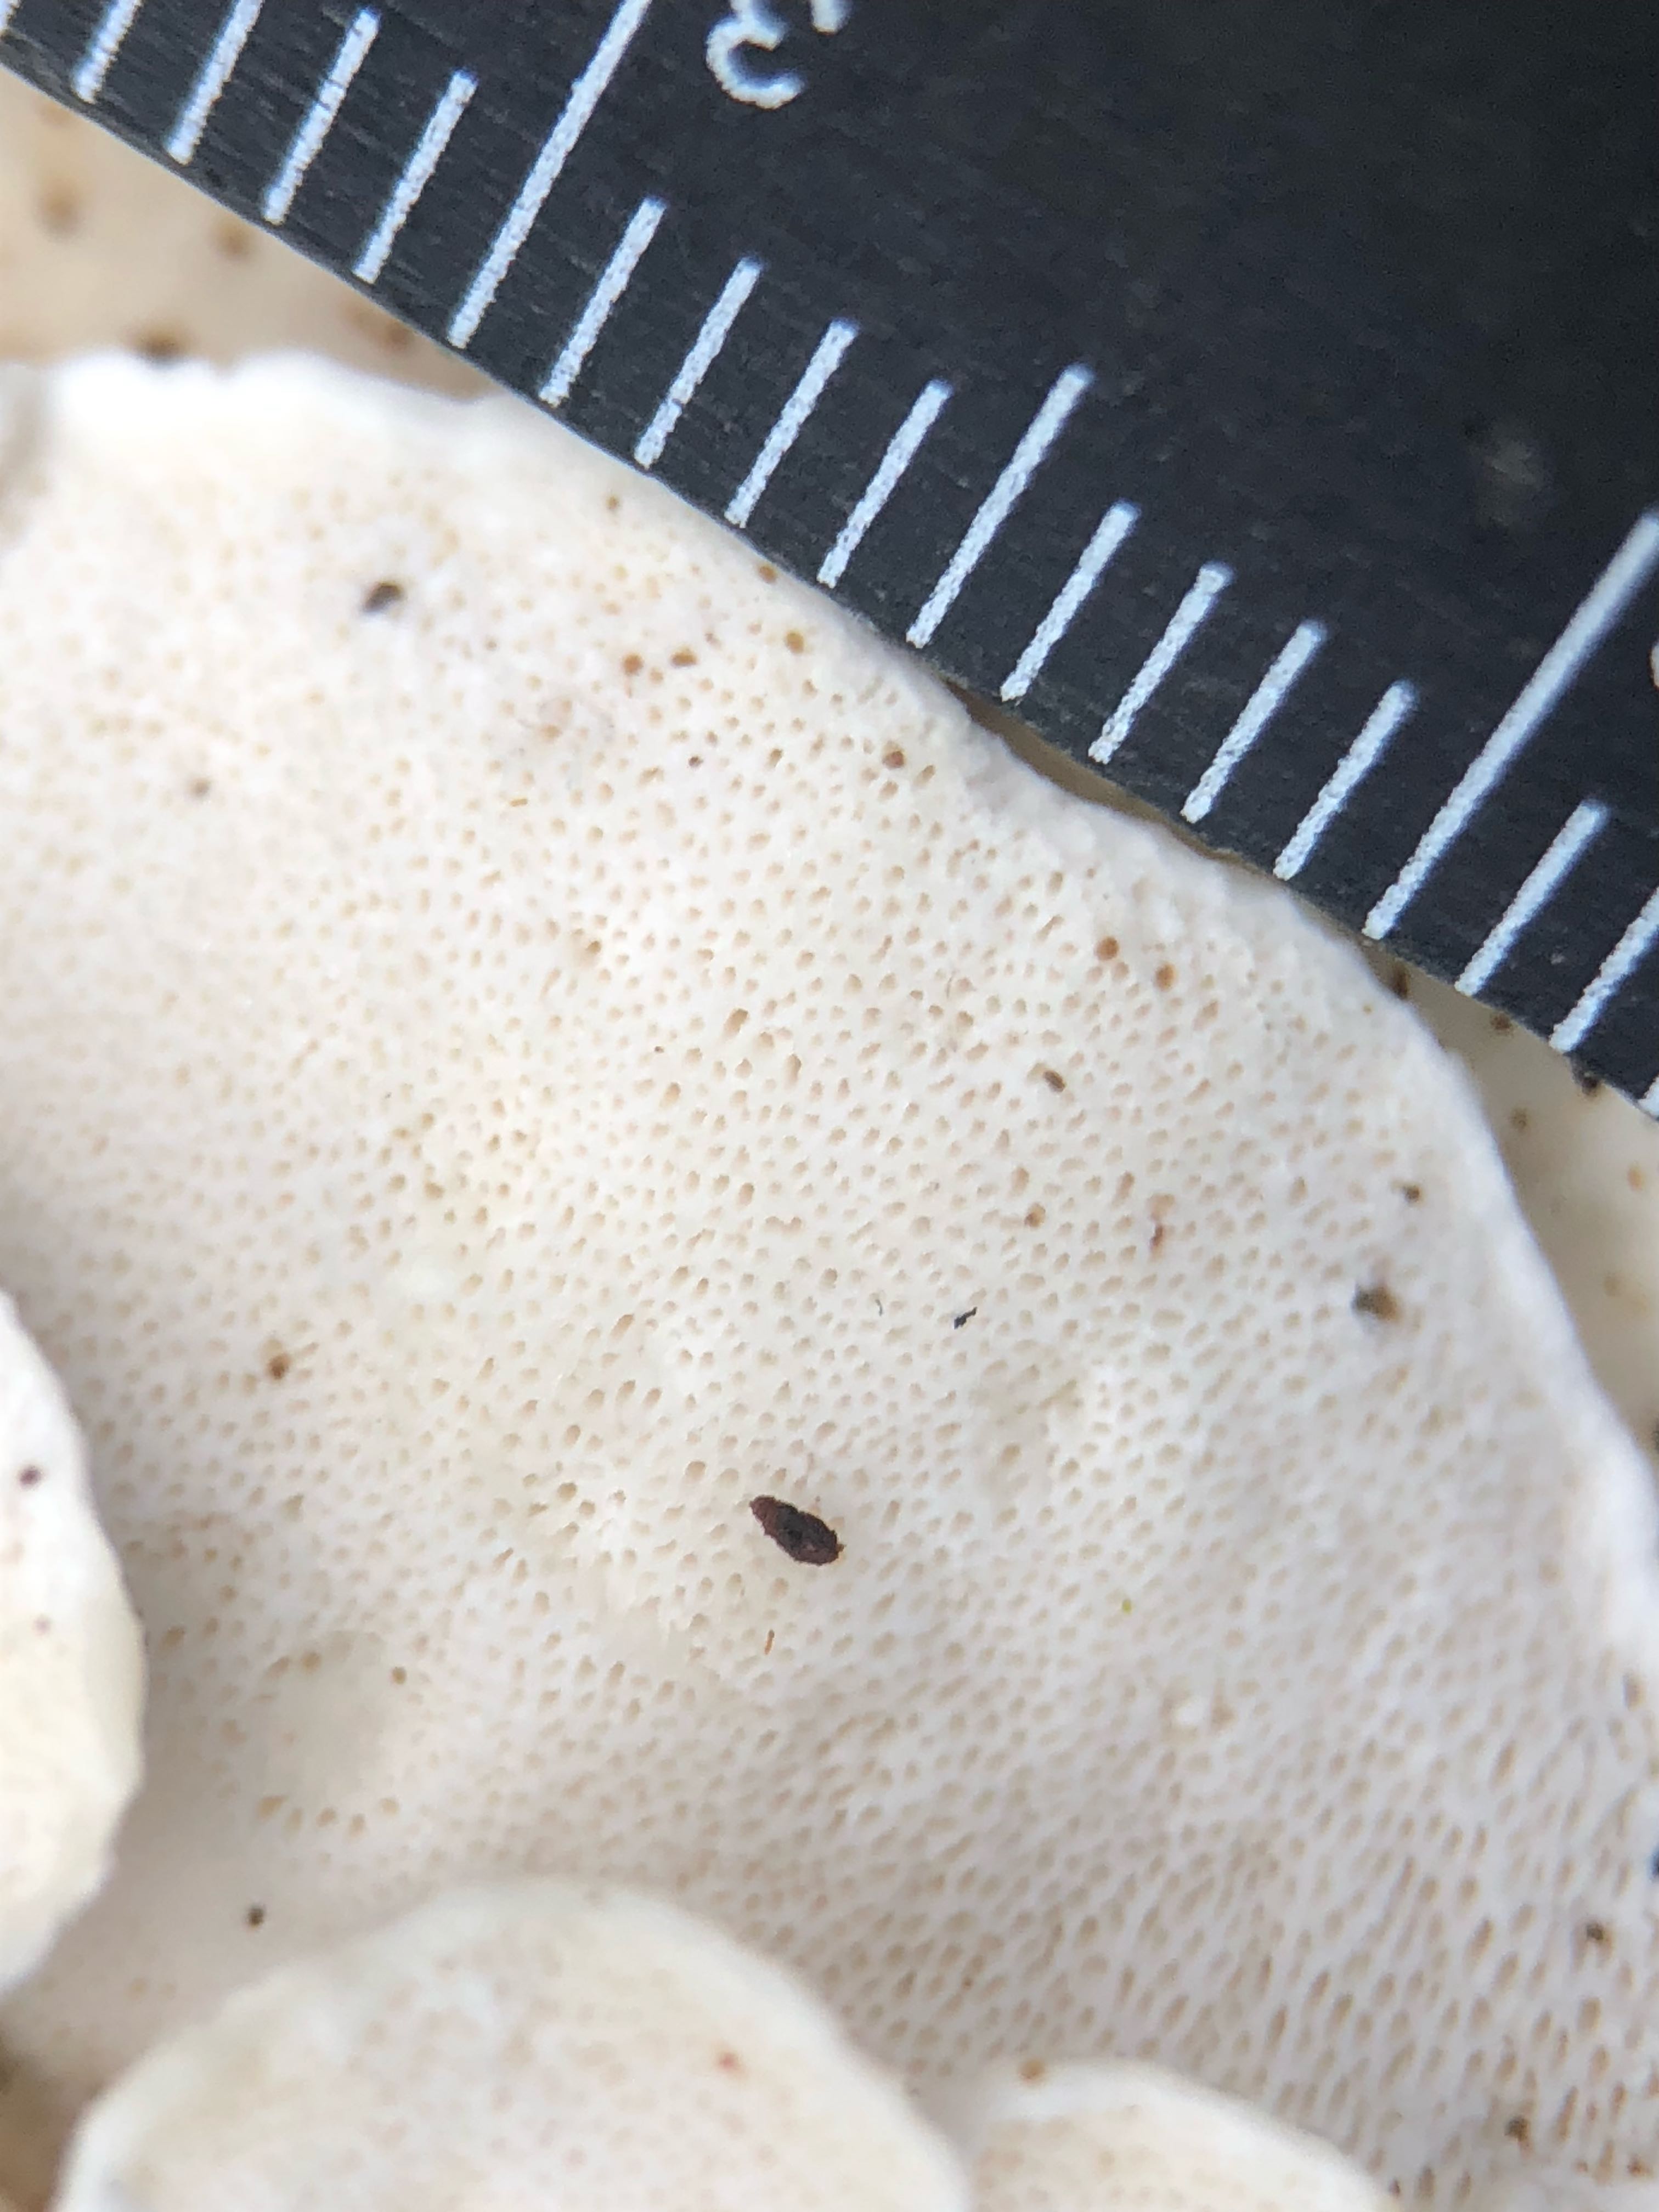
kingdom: Fungi
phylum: Basidiomycota
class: Agaricomycetes
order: Polyporales
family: Dacryobolaceae
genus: Postia
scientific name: Postia
